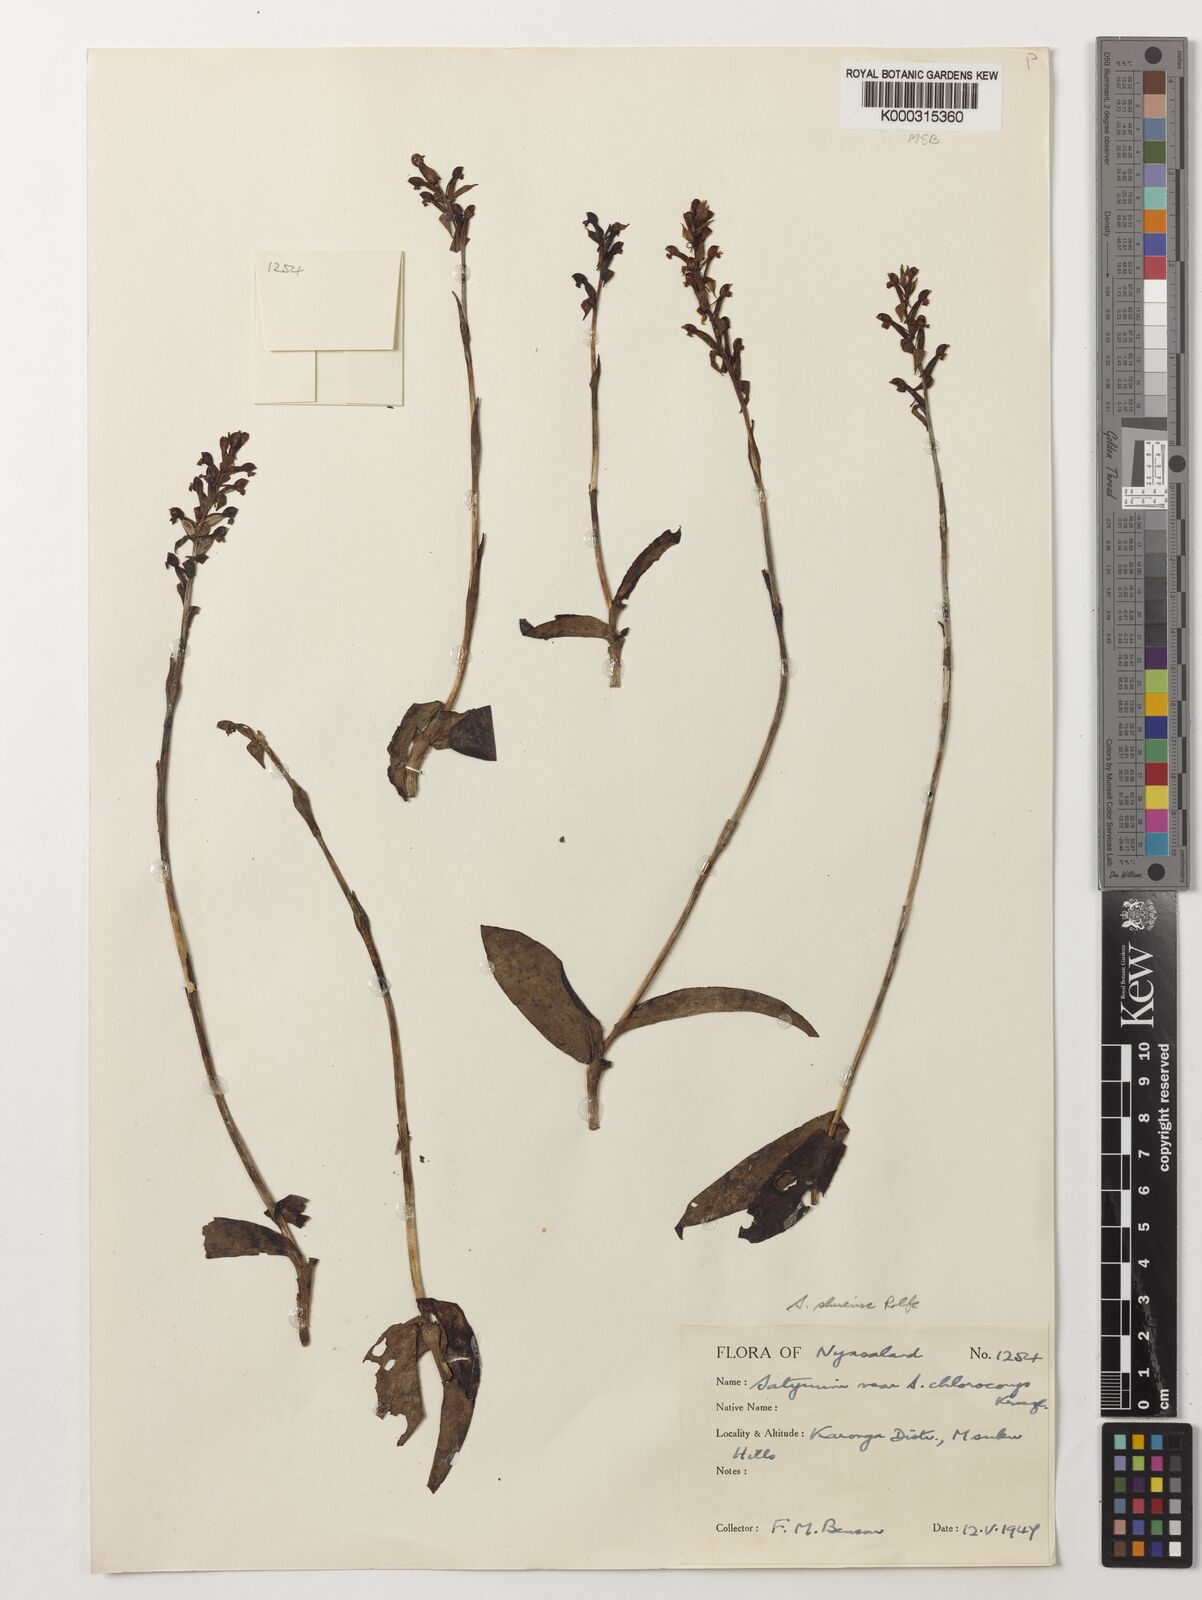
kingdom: Plantae
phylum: Tracheophyta
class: Liliopsida
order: Asparagales
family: Orchidaceae
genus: Satyrium
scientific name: Satyrium shirense
